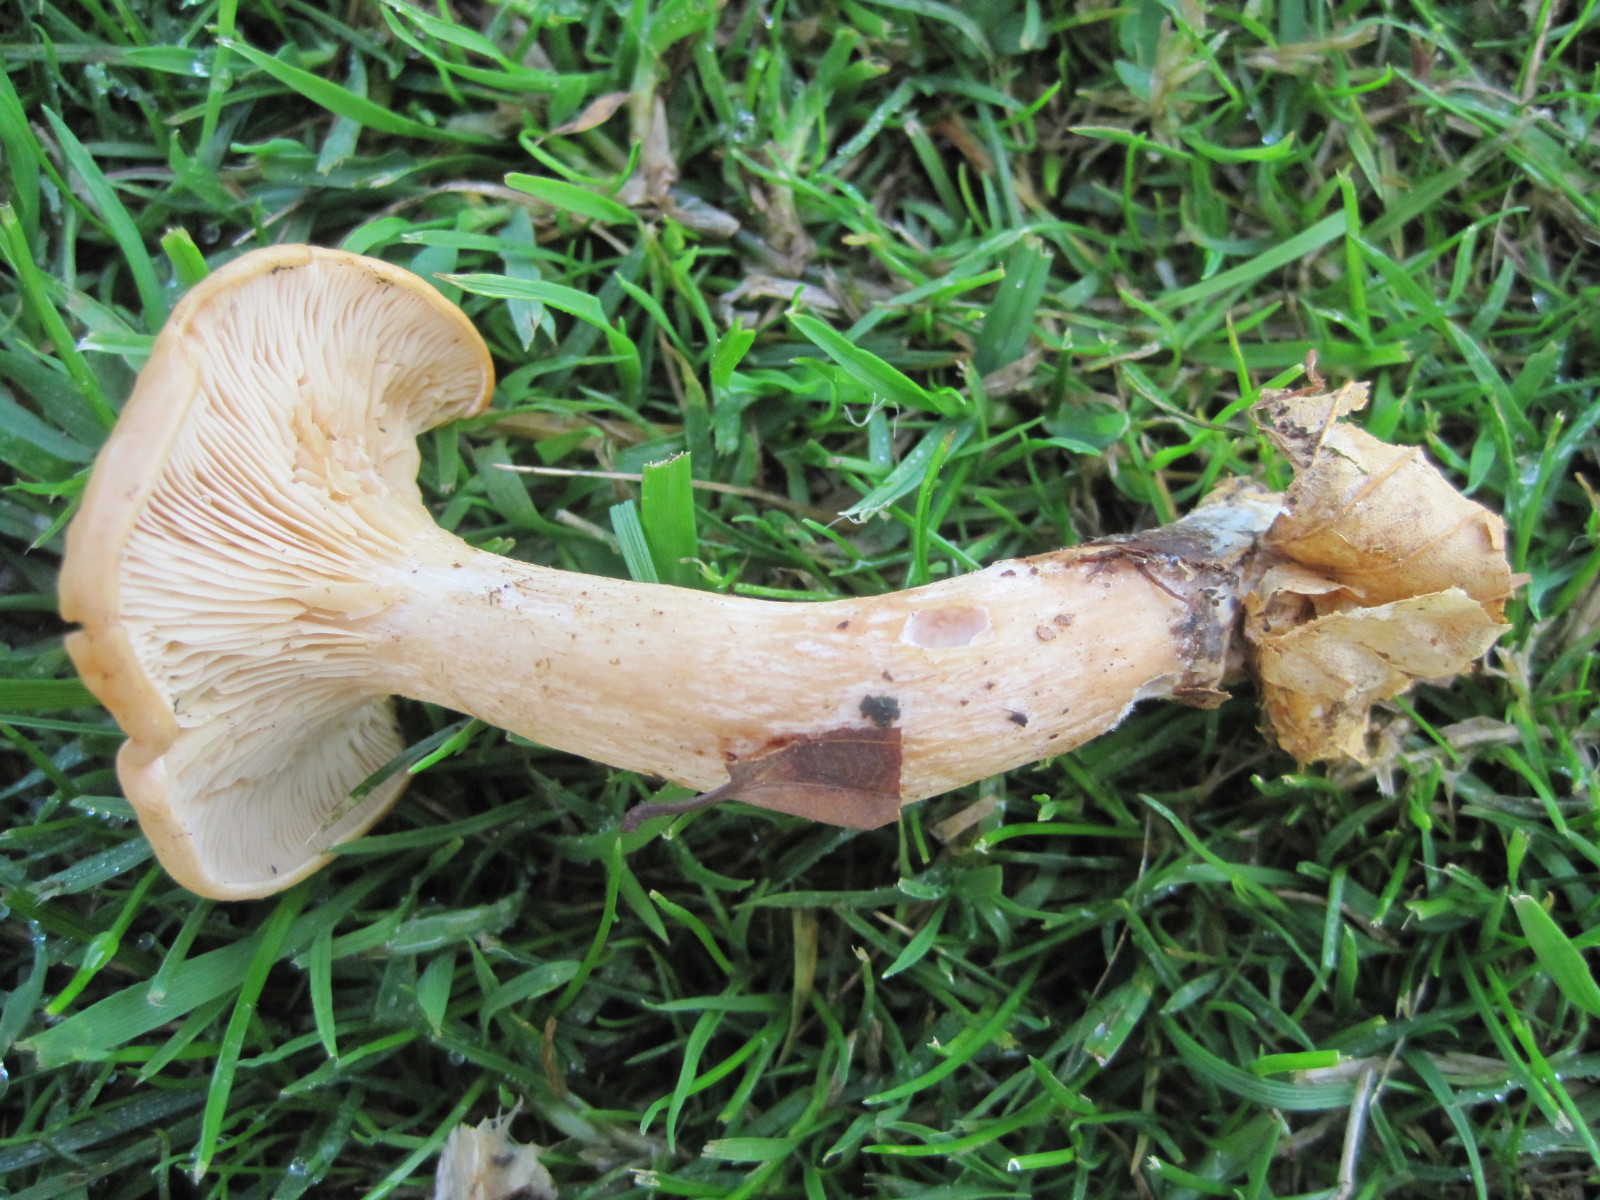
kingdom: Fungi
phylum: Basidiomycota
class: Agaricomycetes
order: Agaricales
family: Tricholomataceae
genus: Paralepista
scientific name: Paralepista gilva
